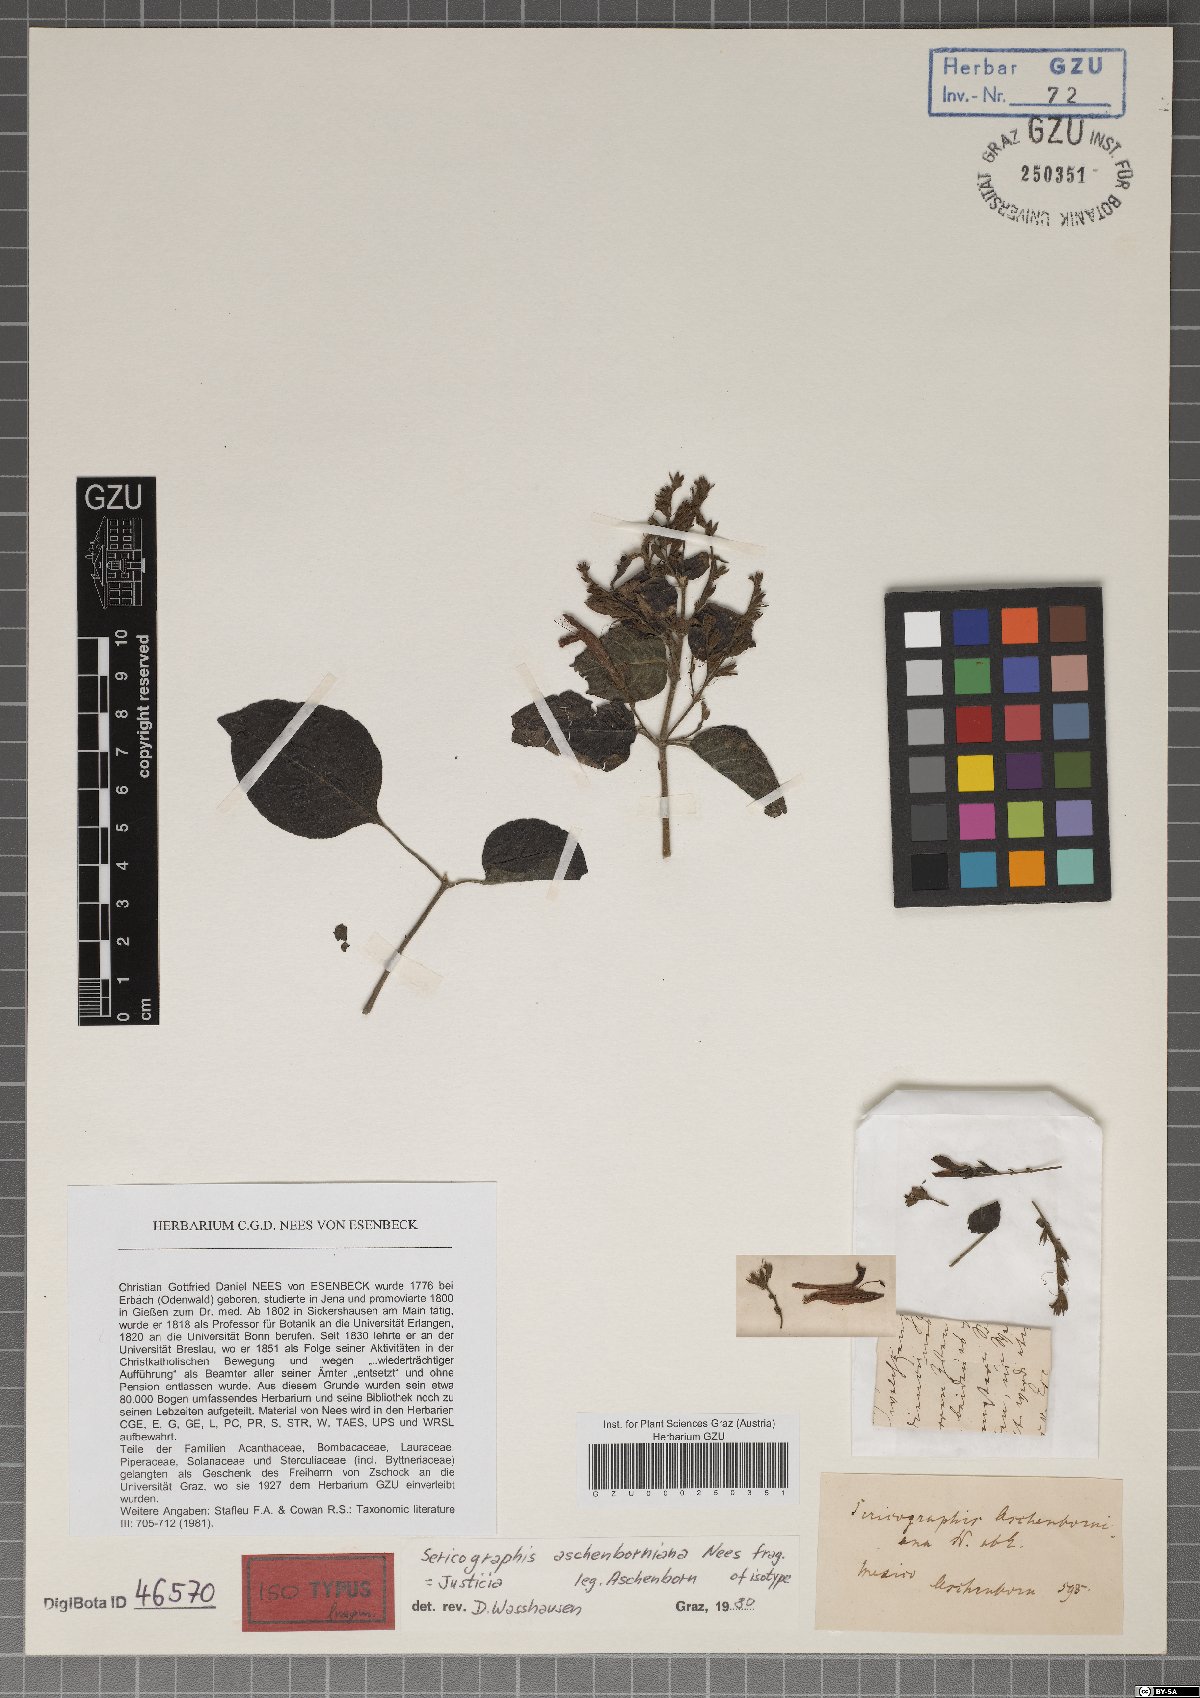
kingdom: Plantae
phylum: Tracheophyta
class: Magnoliopsida
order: Lamiales
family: Acanthaceae
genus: Justicia
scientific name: Justicia leonardii
